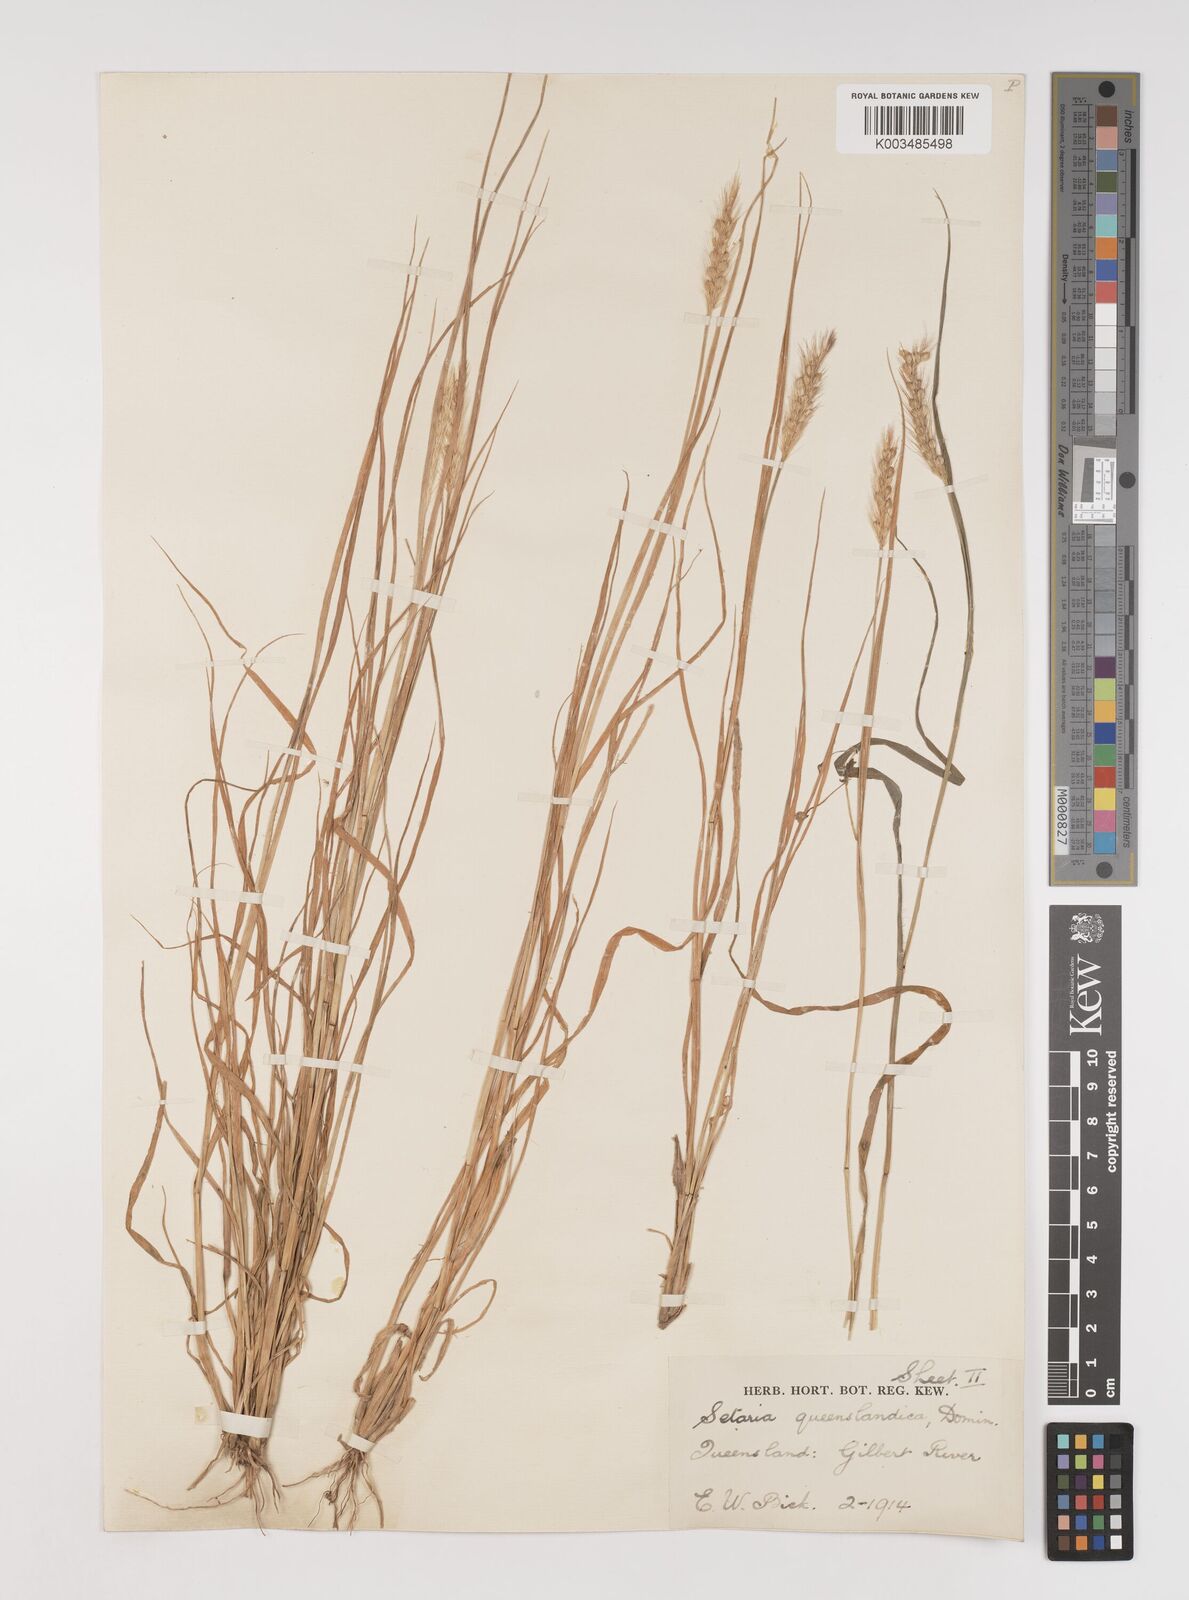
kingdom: Plantae
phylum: Tracheophyta
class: Liliopsida
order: Poales
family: Poaceae
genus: Setaria
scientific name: Setaria queenslandica
